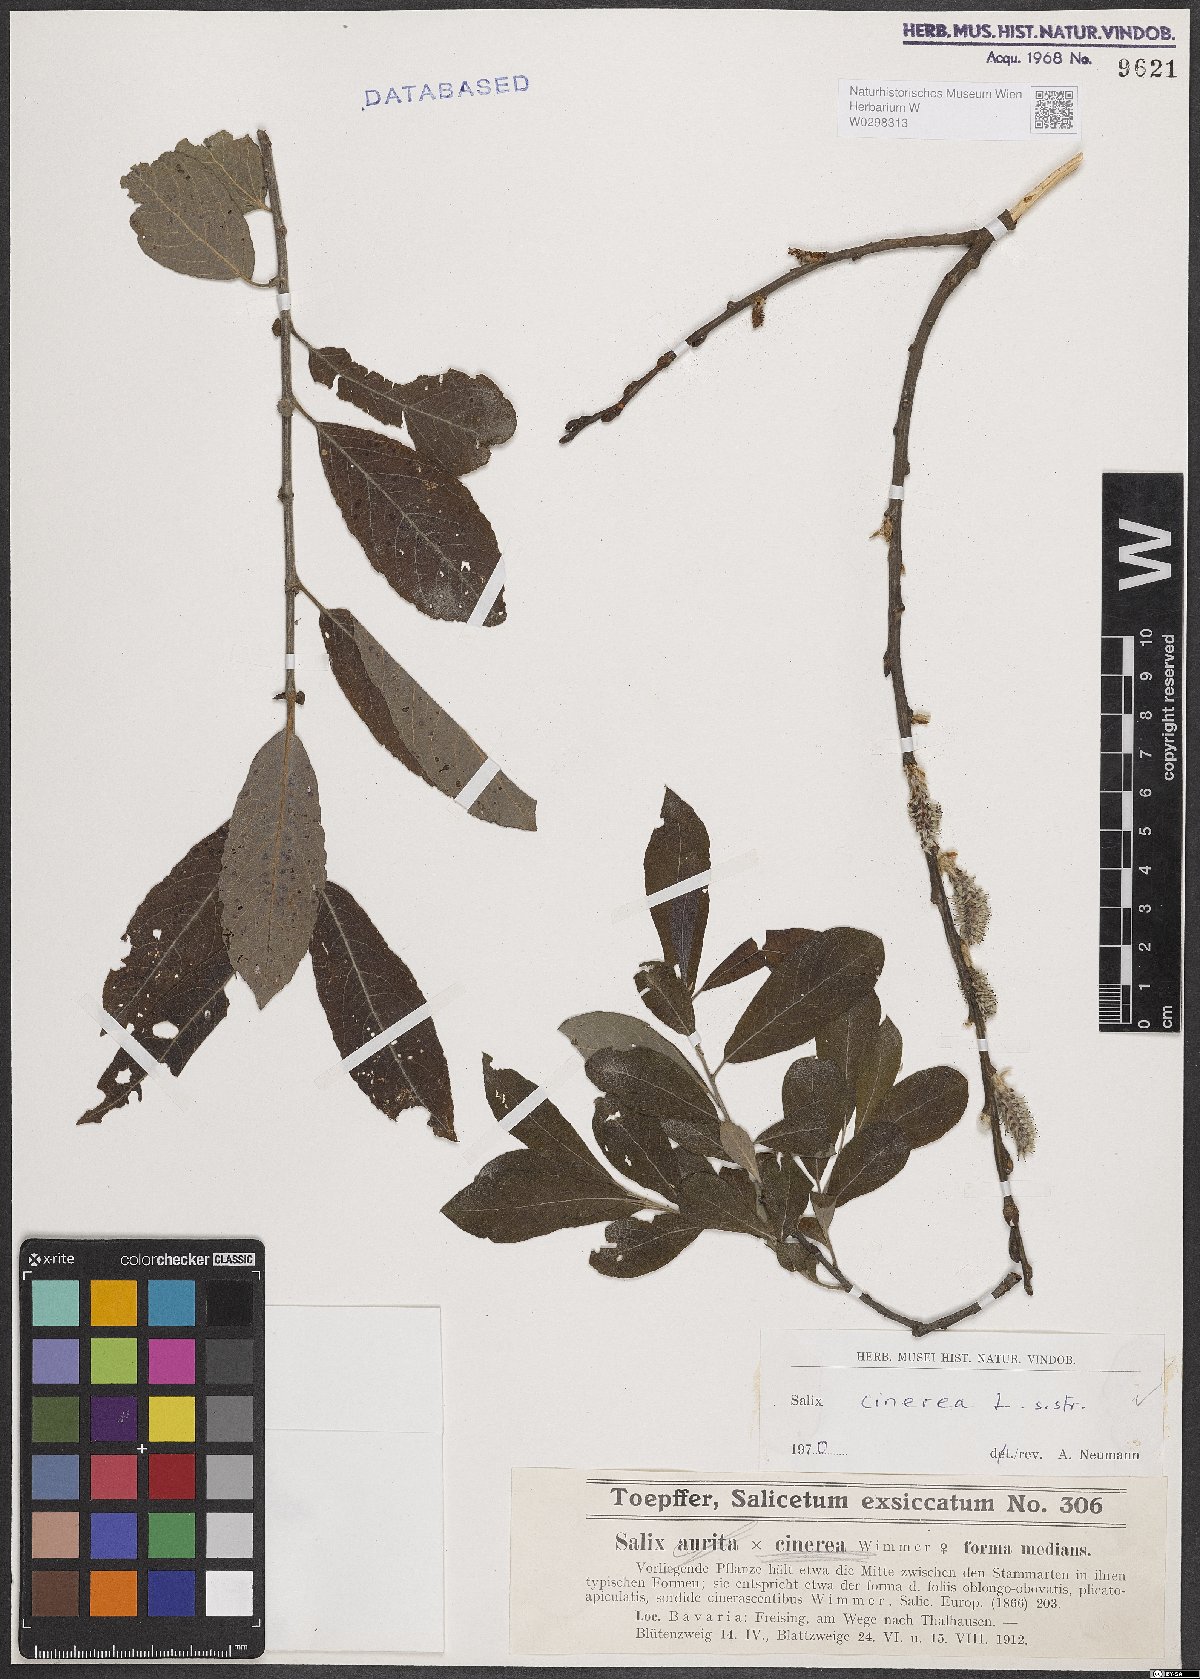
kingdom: Plantae
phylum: Tracheophyta
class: Magnoliopsida
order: Malpighiales
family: Salicaceae
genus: Salix
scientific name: Salix cinerea
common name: Common sallow
